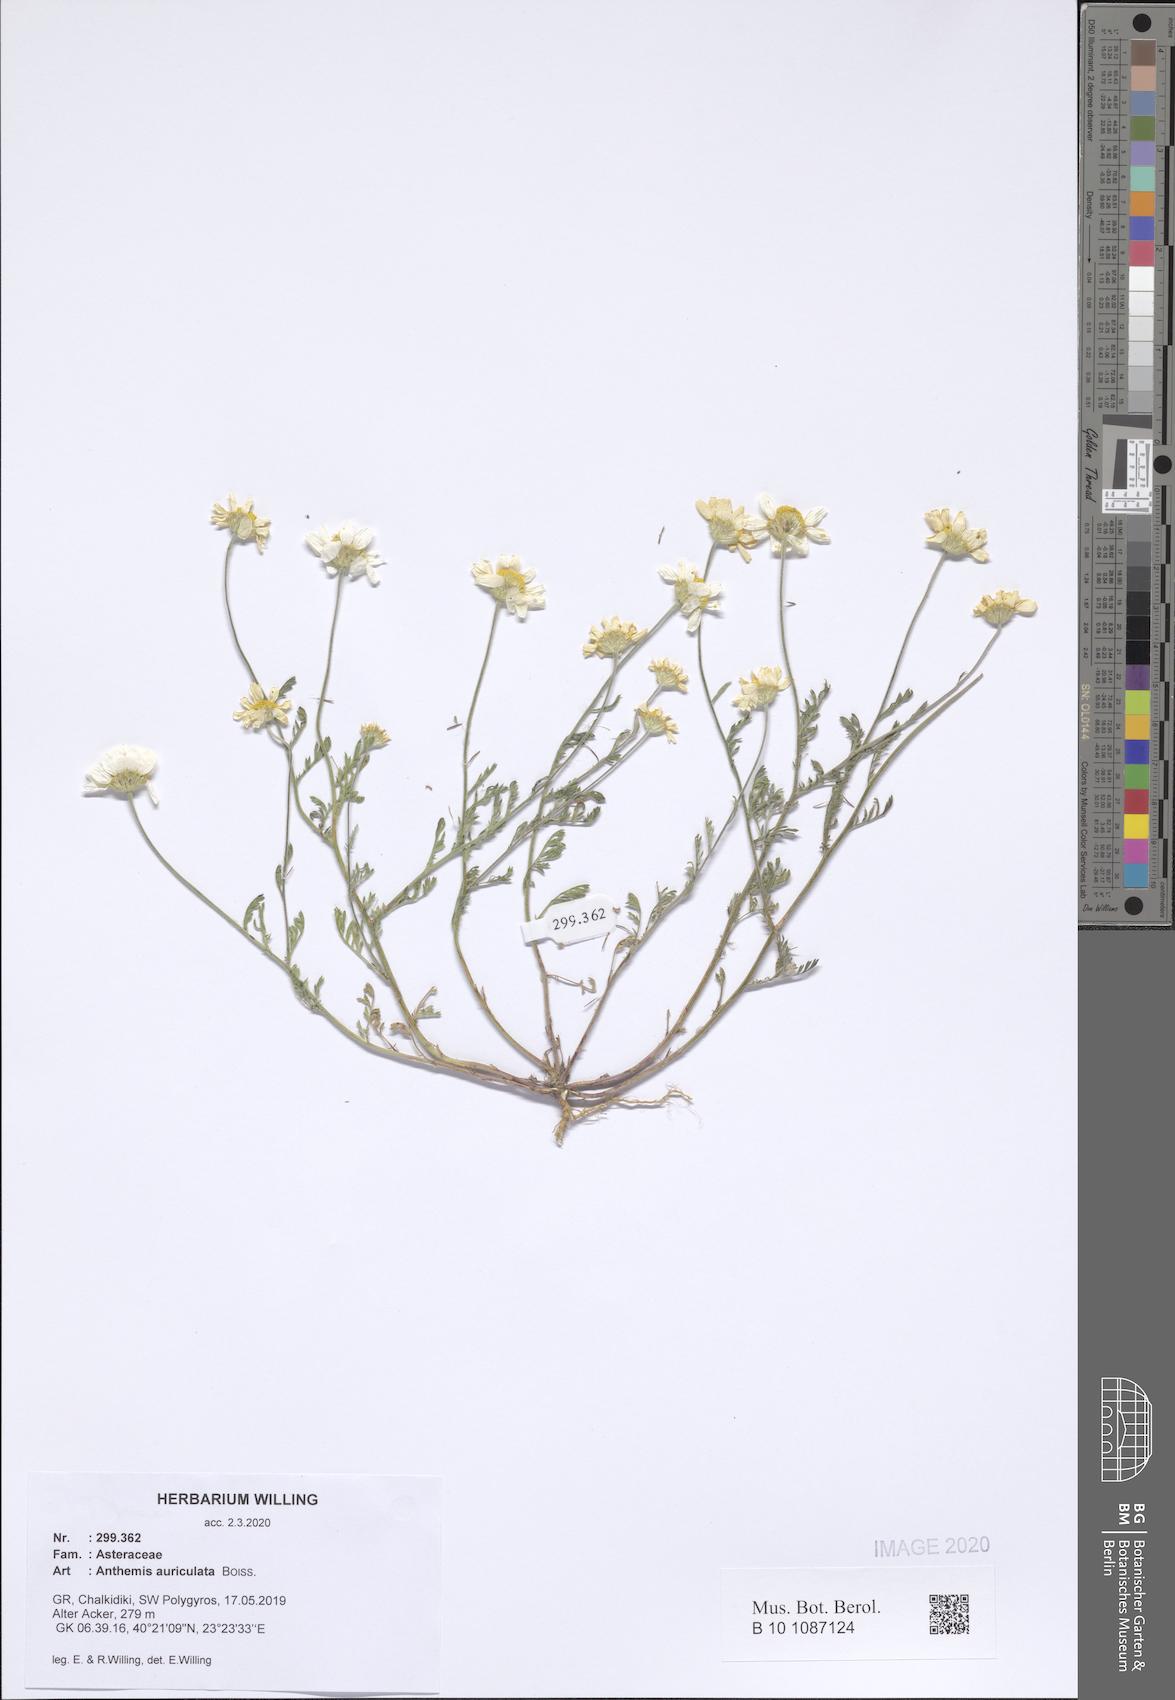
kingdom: Plantae
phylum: Tracheophyta
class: Magnoliopsida
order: Asterales
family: Asteraceae
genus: Anthemis
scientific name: Anthemis auriculata
